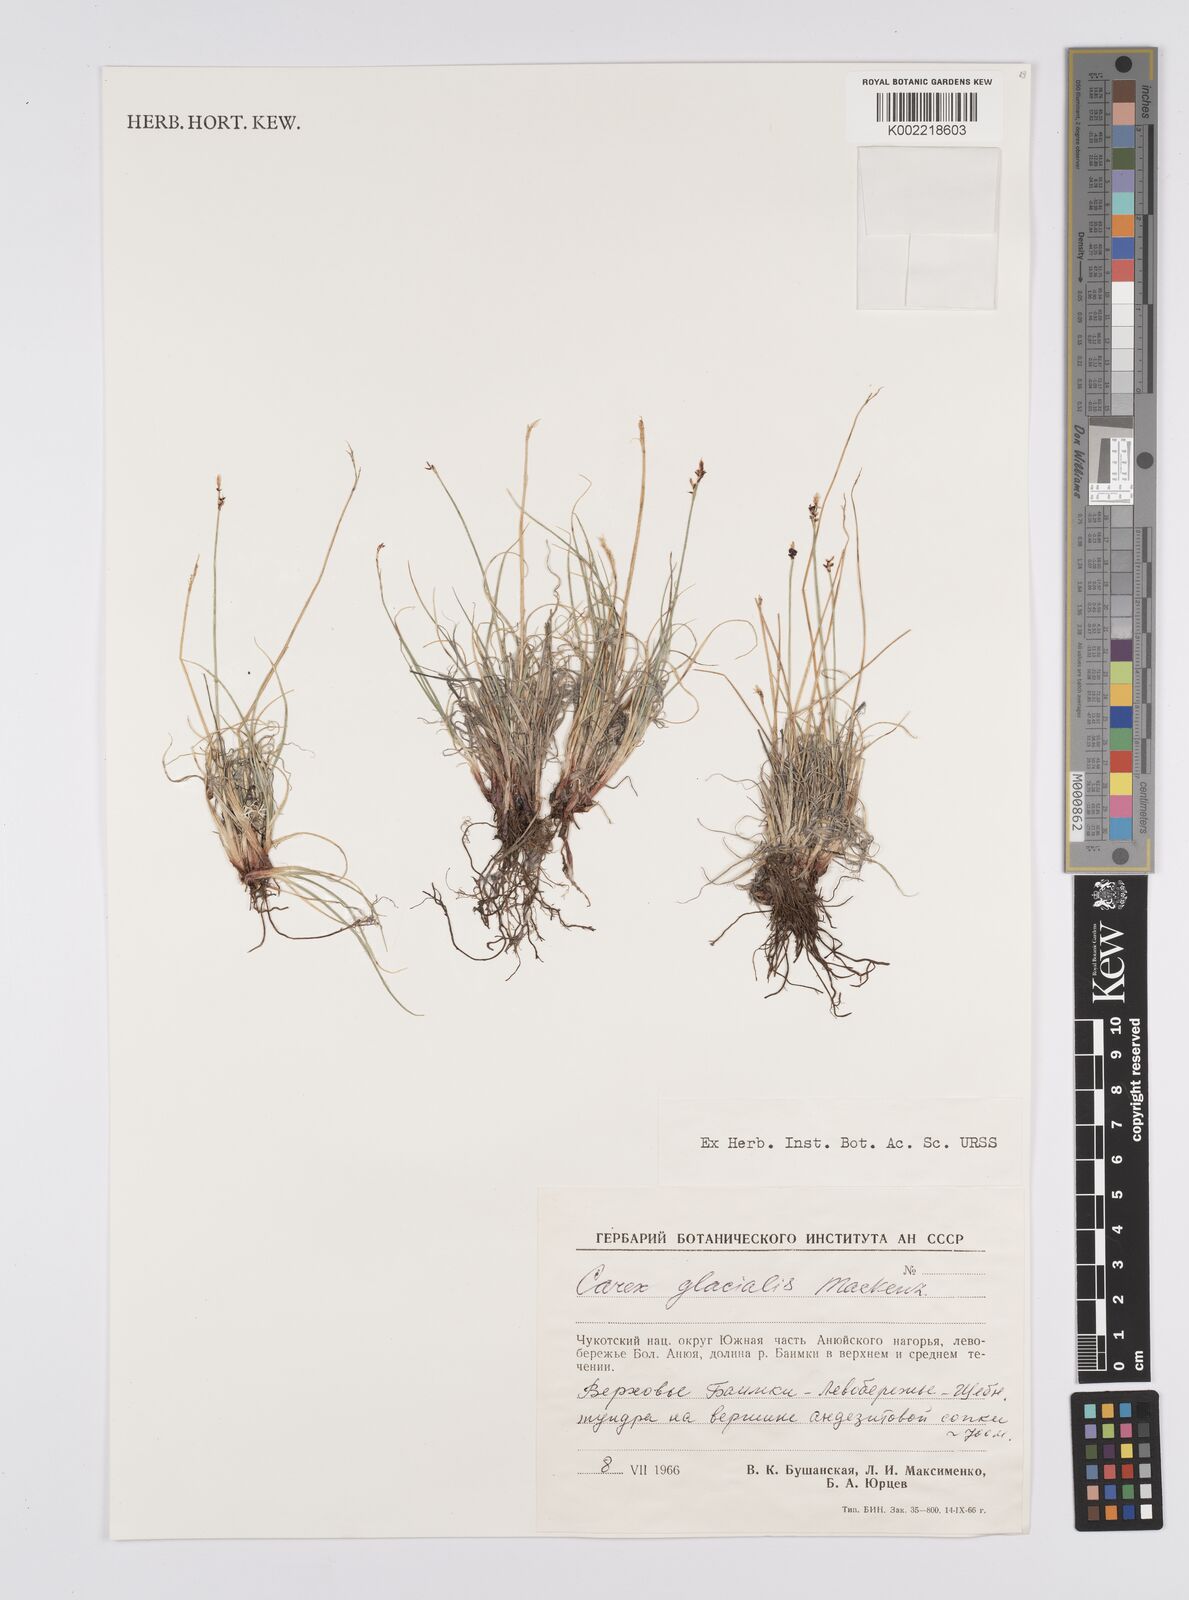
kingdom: Plantae
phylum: Tracheophyta
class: Liliopsida
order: Poales
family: Cyperaceae
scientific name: Cyperaceae
